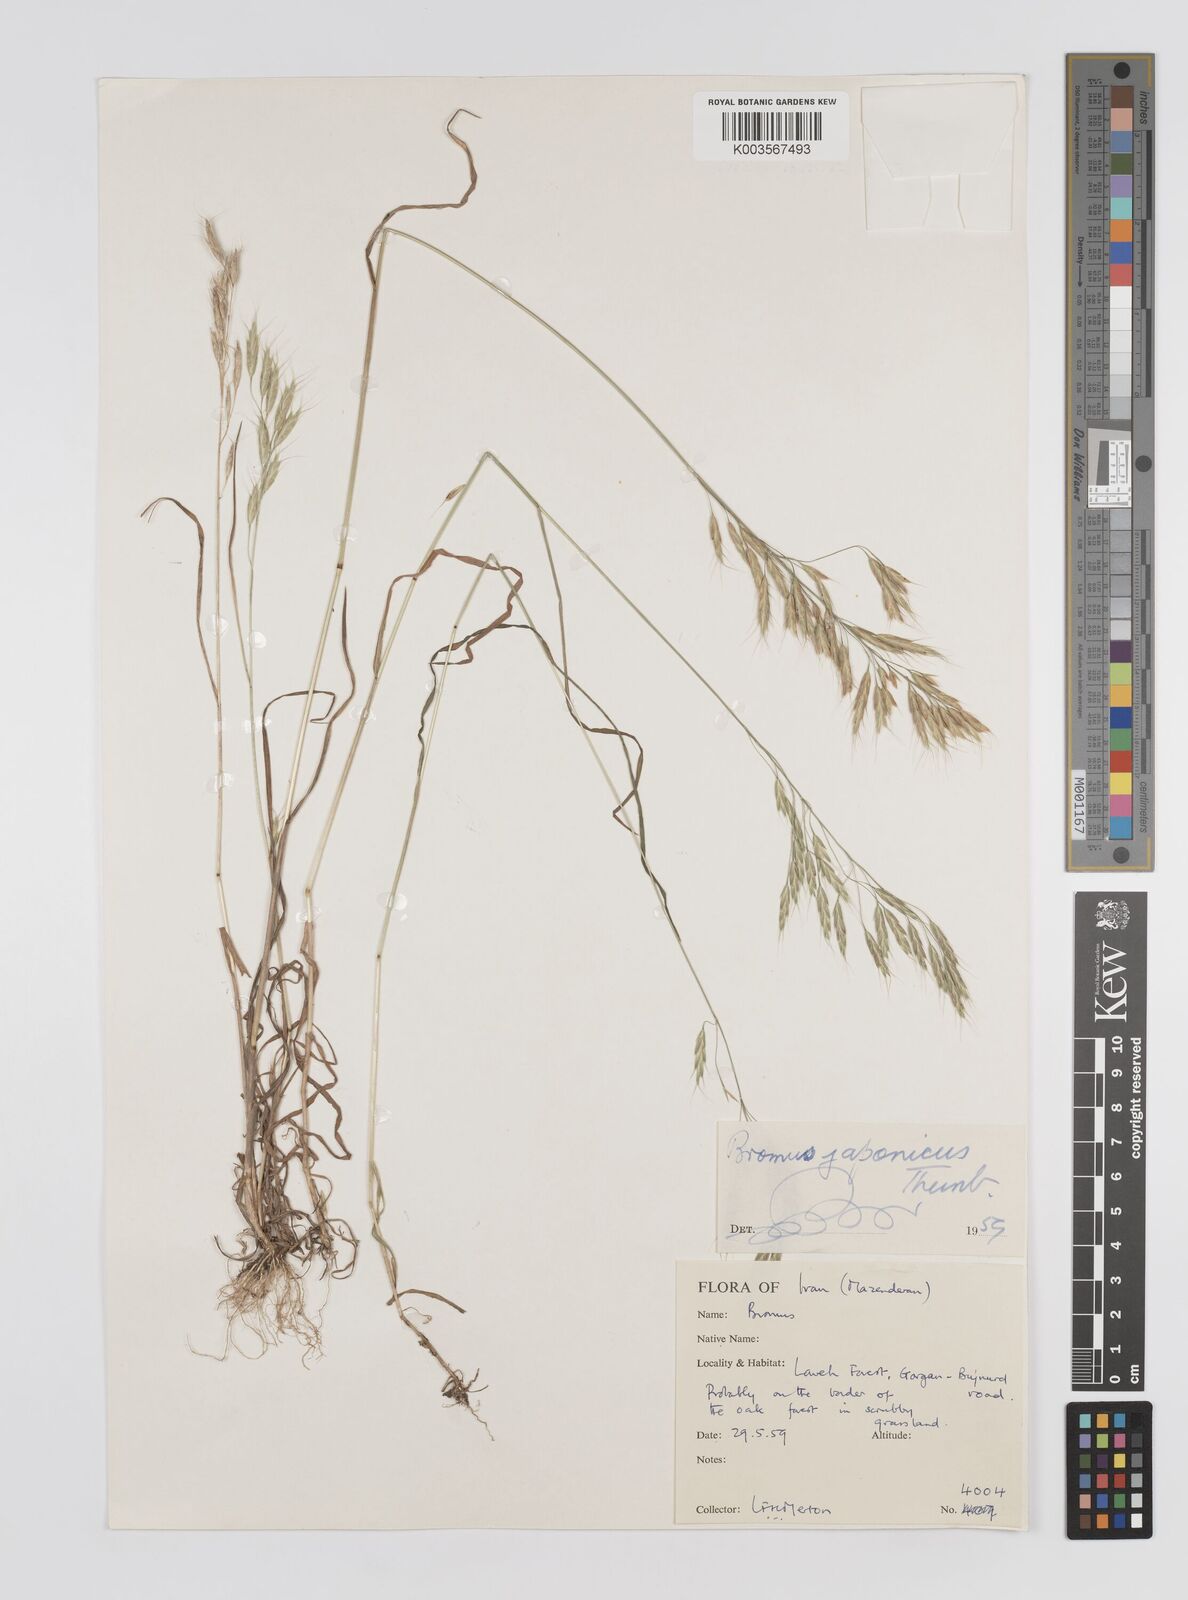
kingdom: Plantae
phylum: Tracheophyta
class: Liliopsida
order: Poales
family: Poaceae
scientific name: Poaceae
